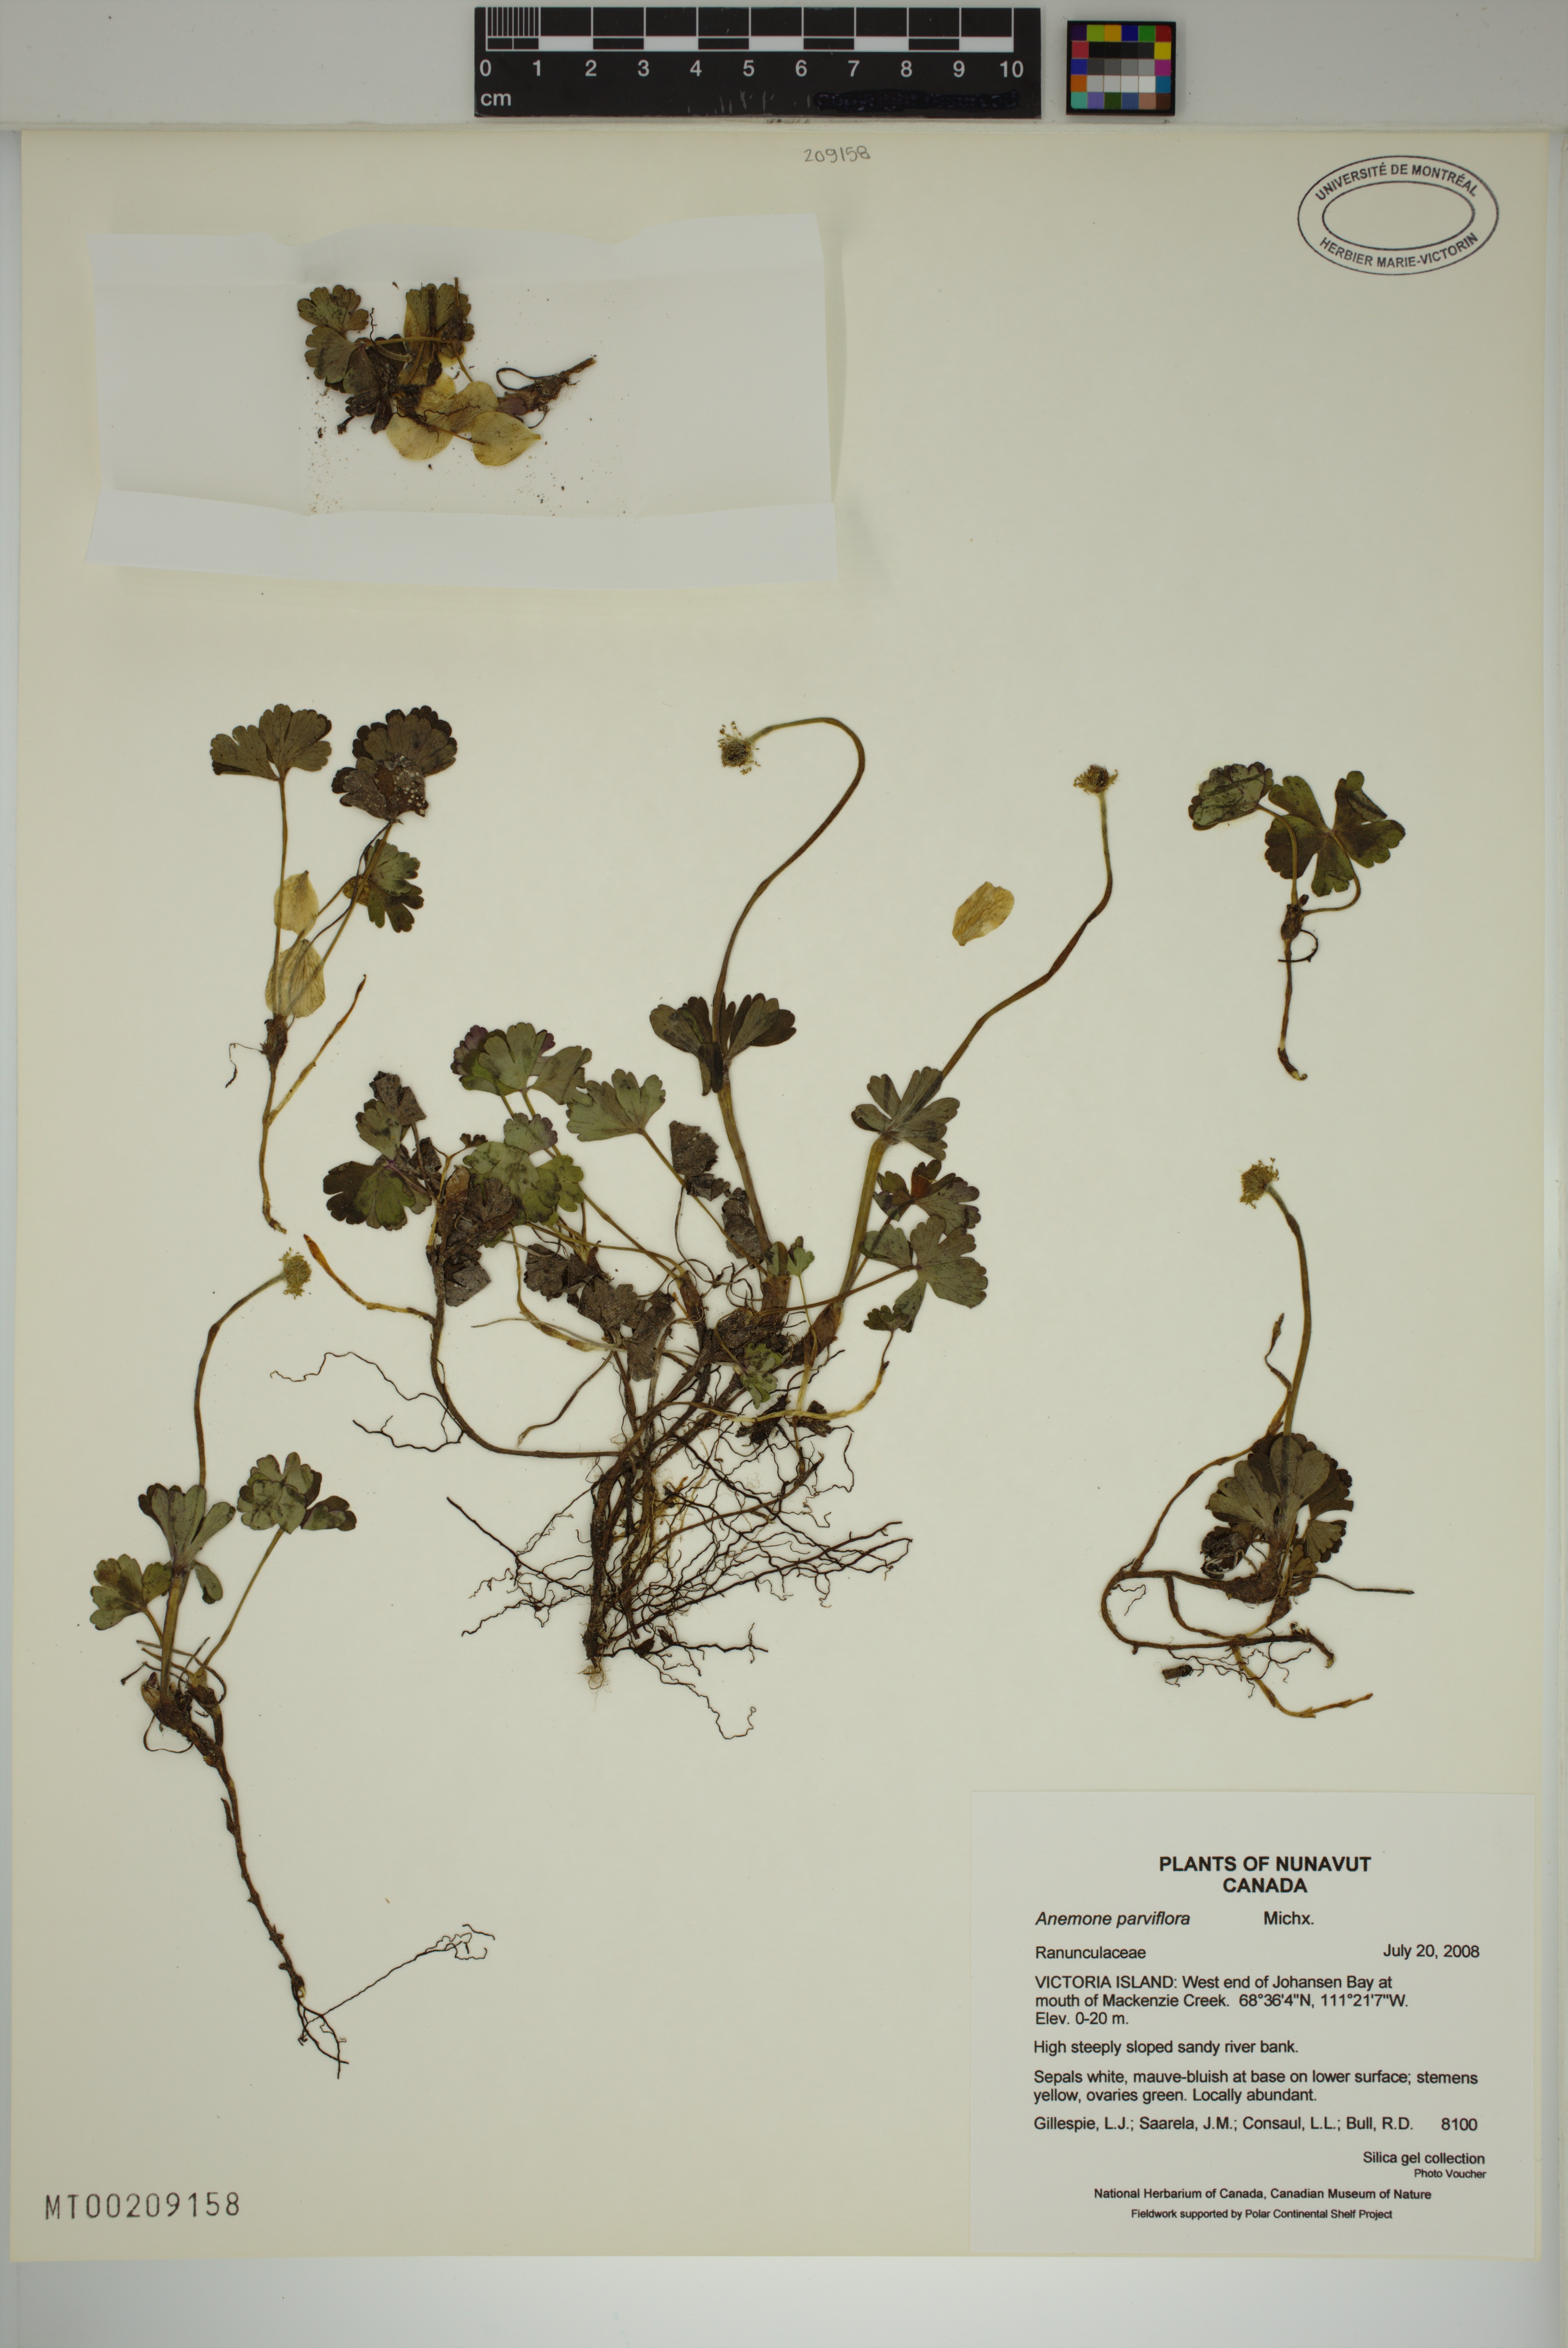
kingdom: Plantae
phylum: Tracheophyta
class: Magnoliopsida
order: Ranunculales
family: Ranunculaceae
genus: Anemone
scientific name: Anemone parviflora
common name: Northern anemone
